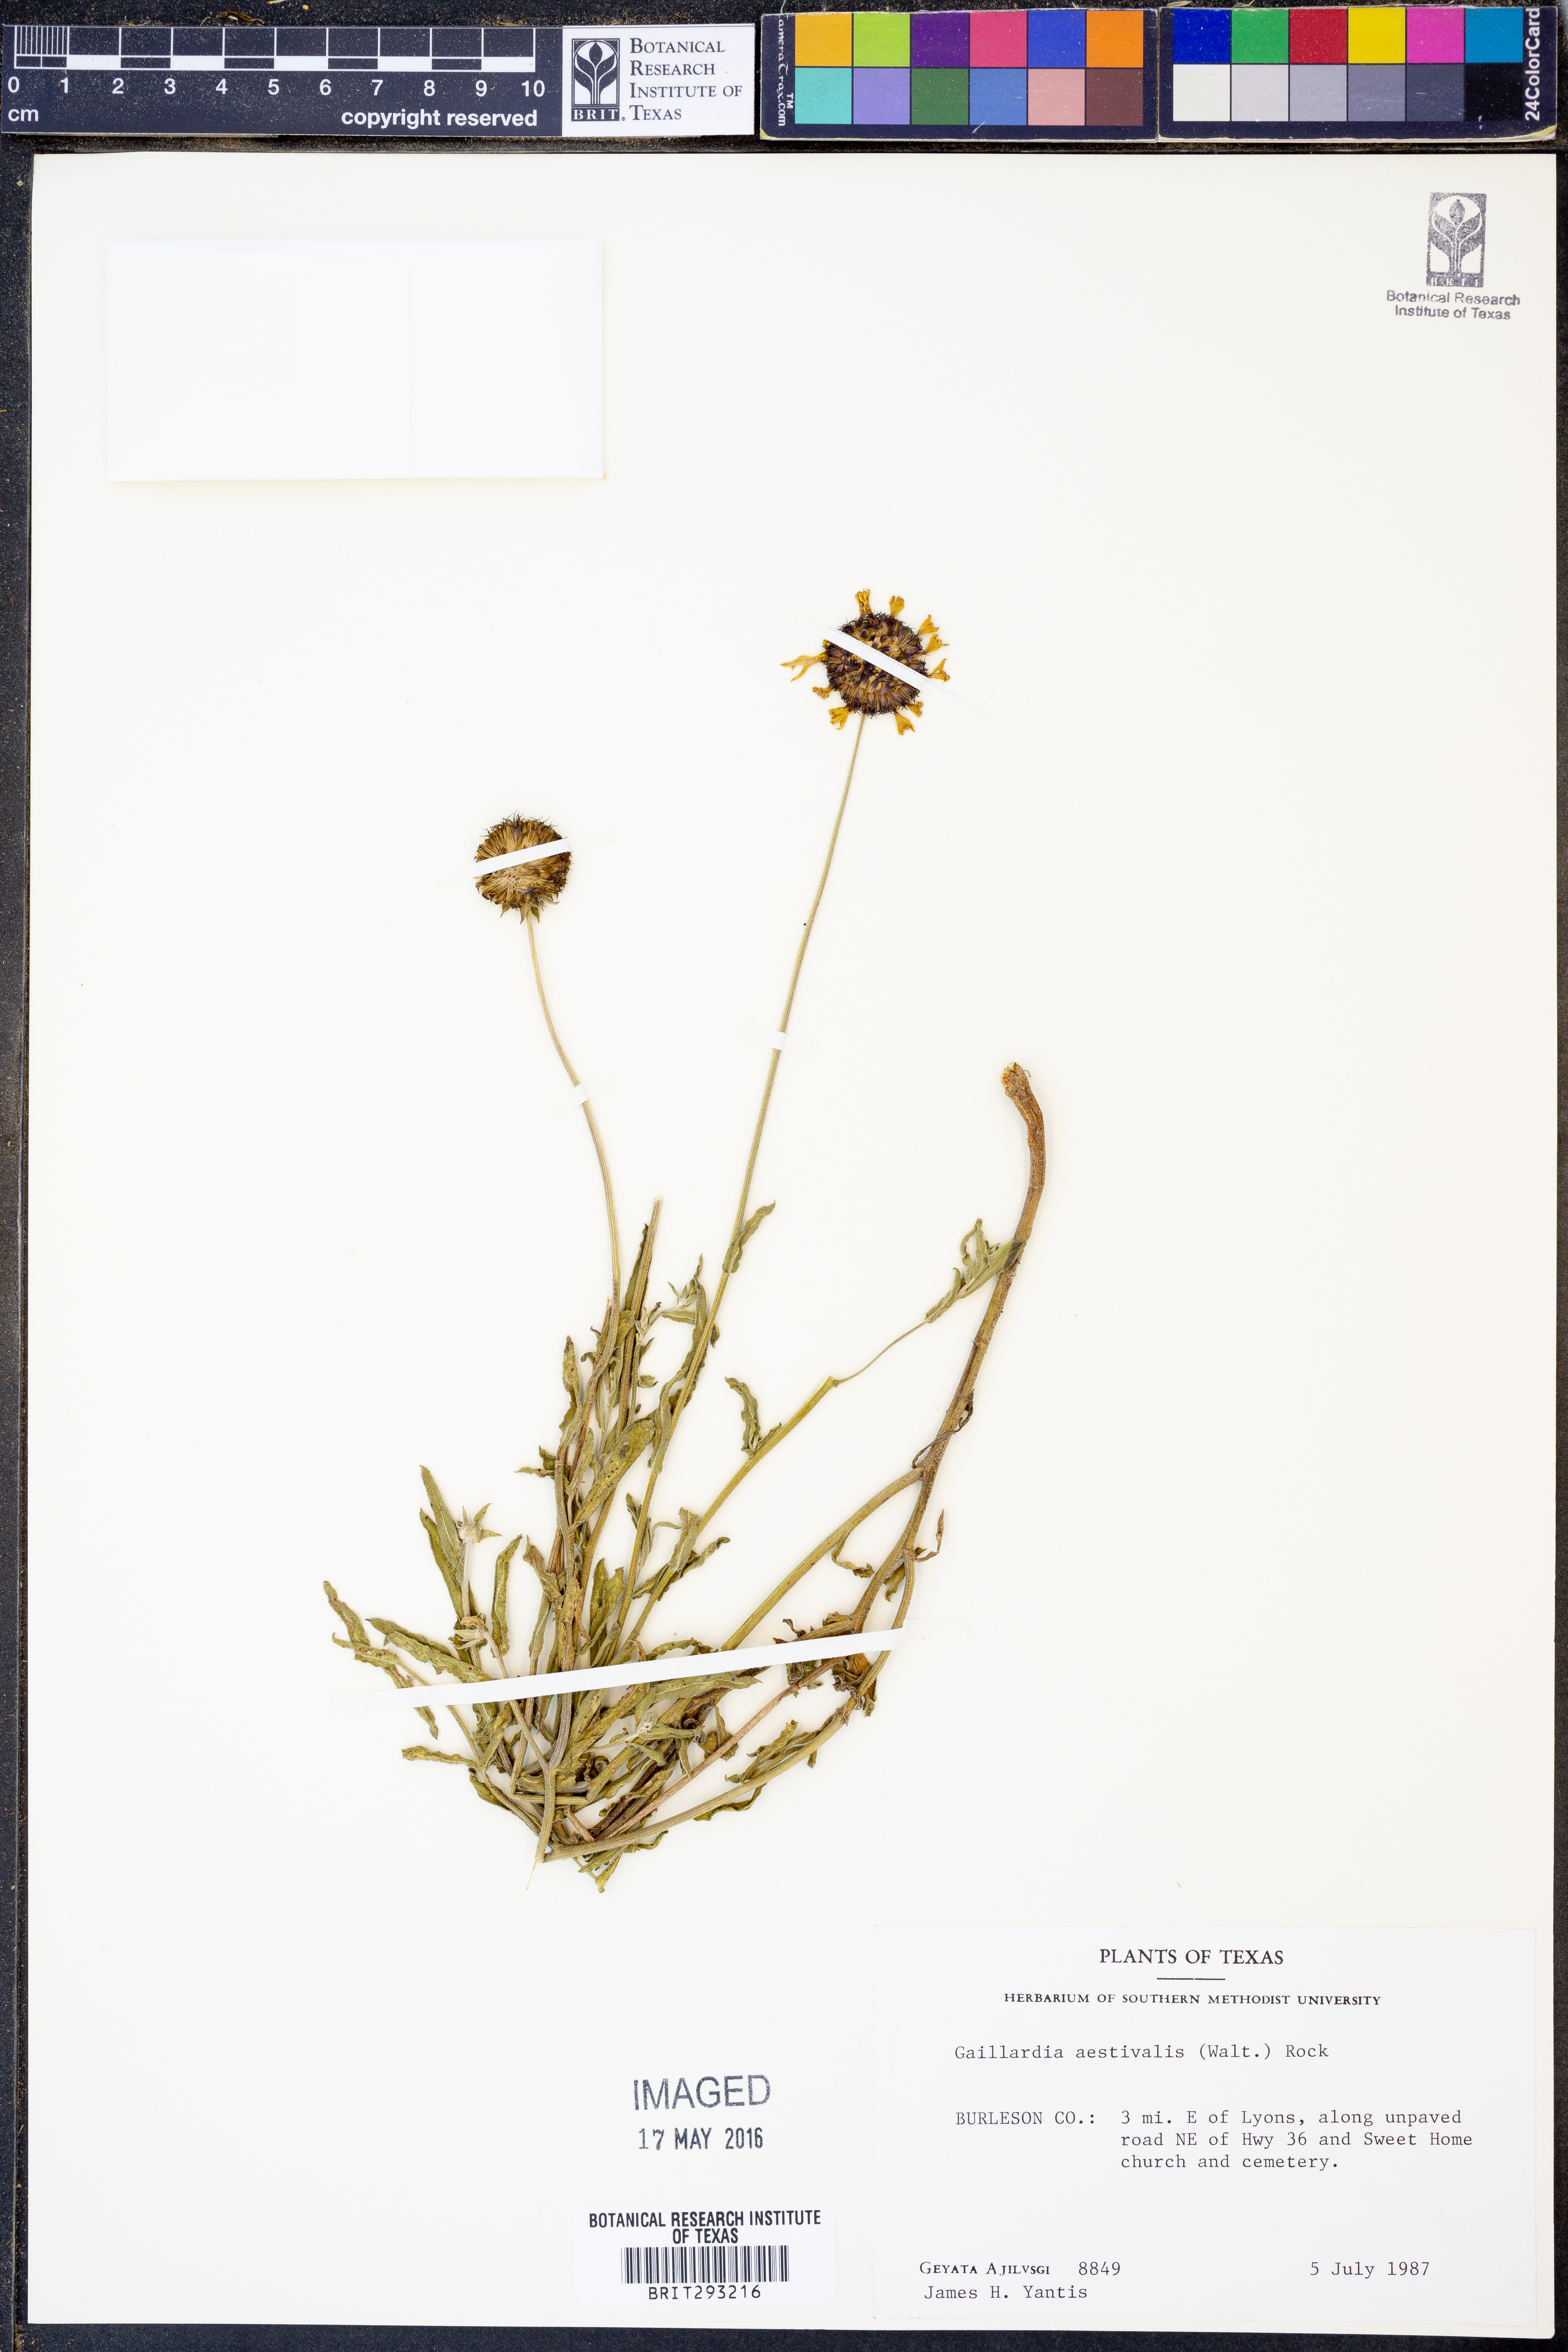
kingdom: Plantae
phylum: Tracheophyta
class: Magnoliopsida
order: Asterales
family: Asteraceae
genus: Gaillardia
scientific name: Gaillardia aestivalis
